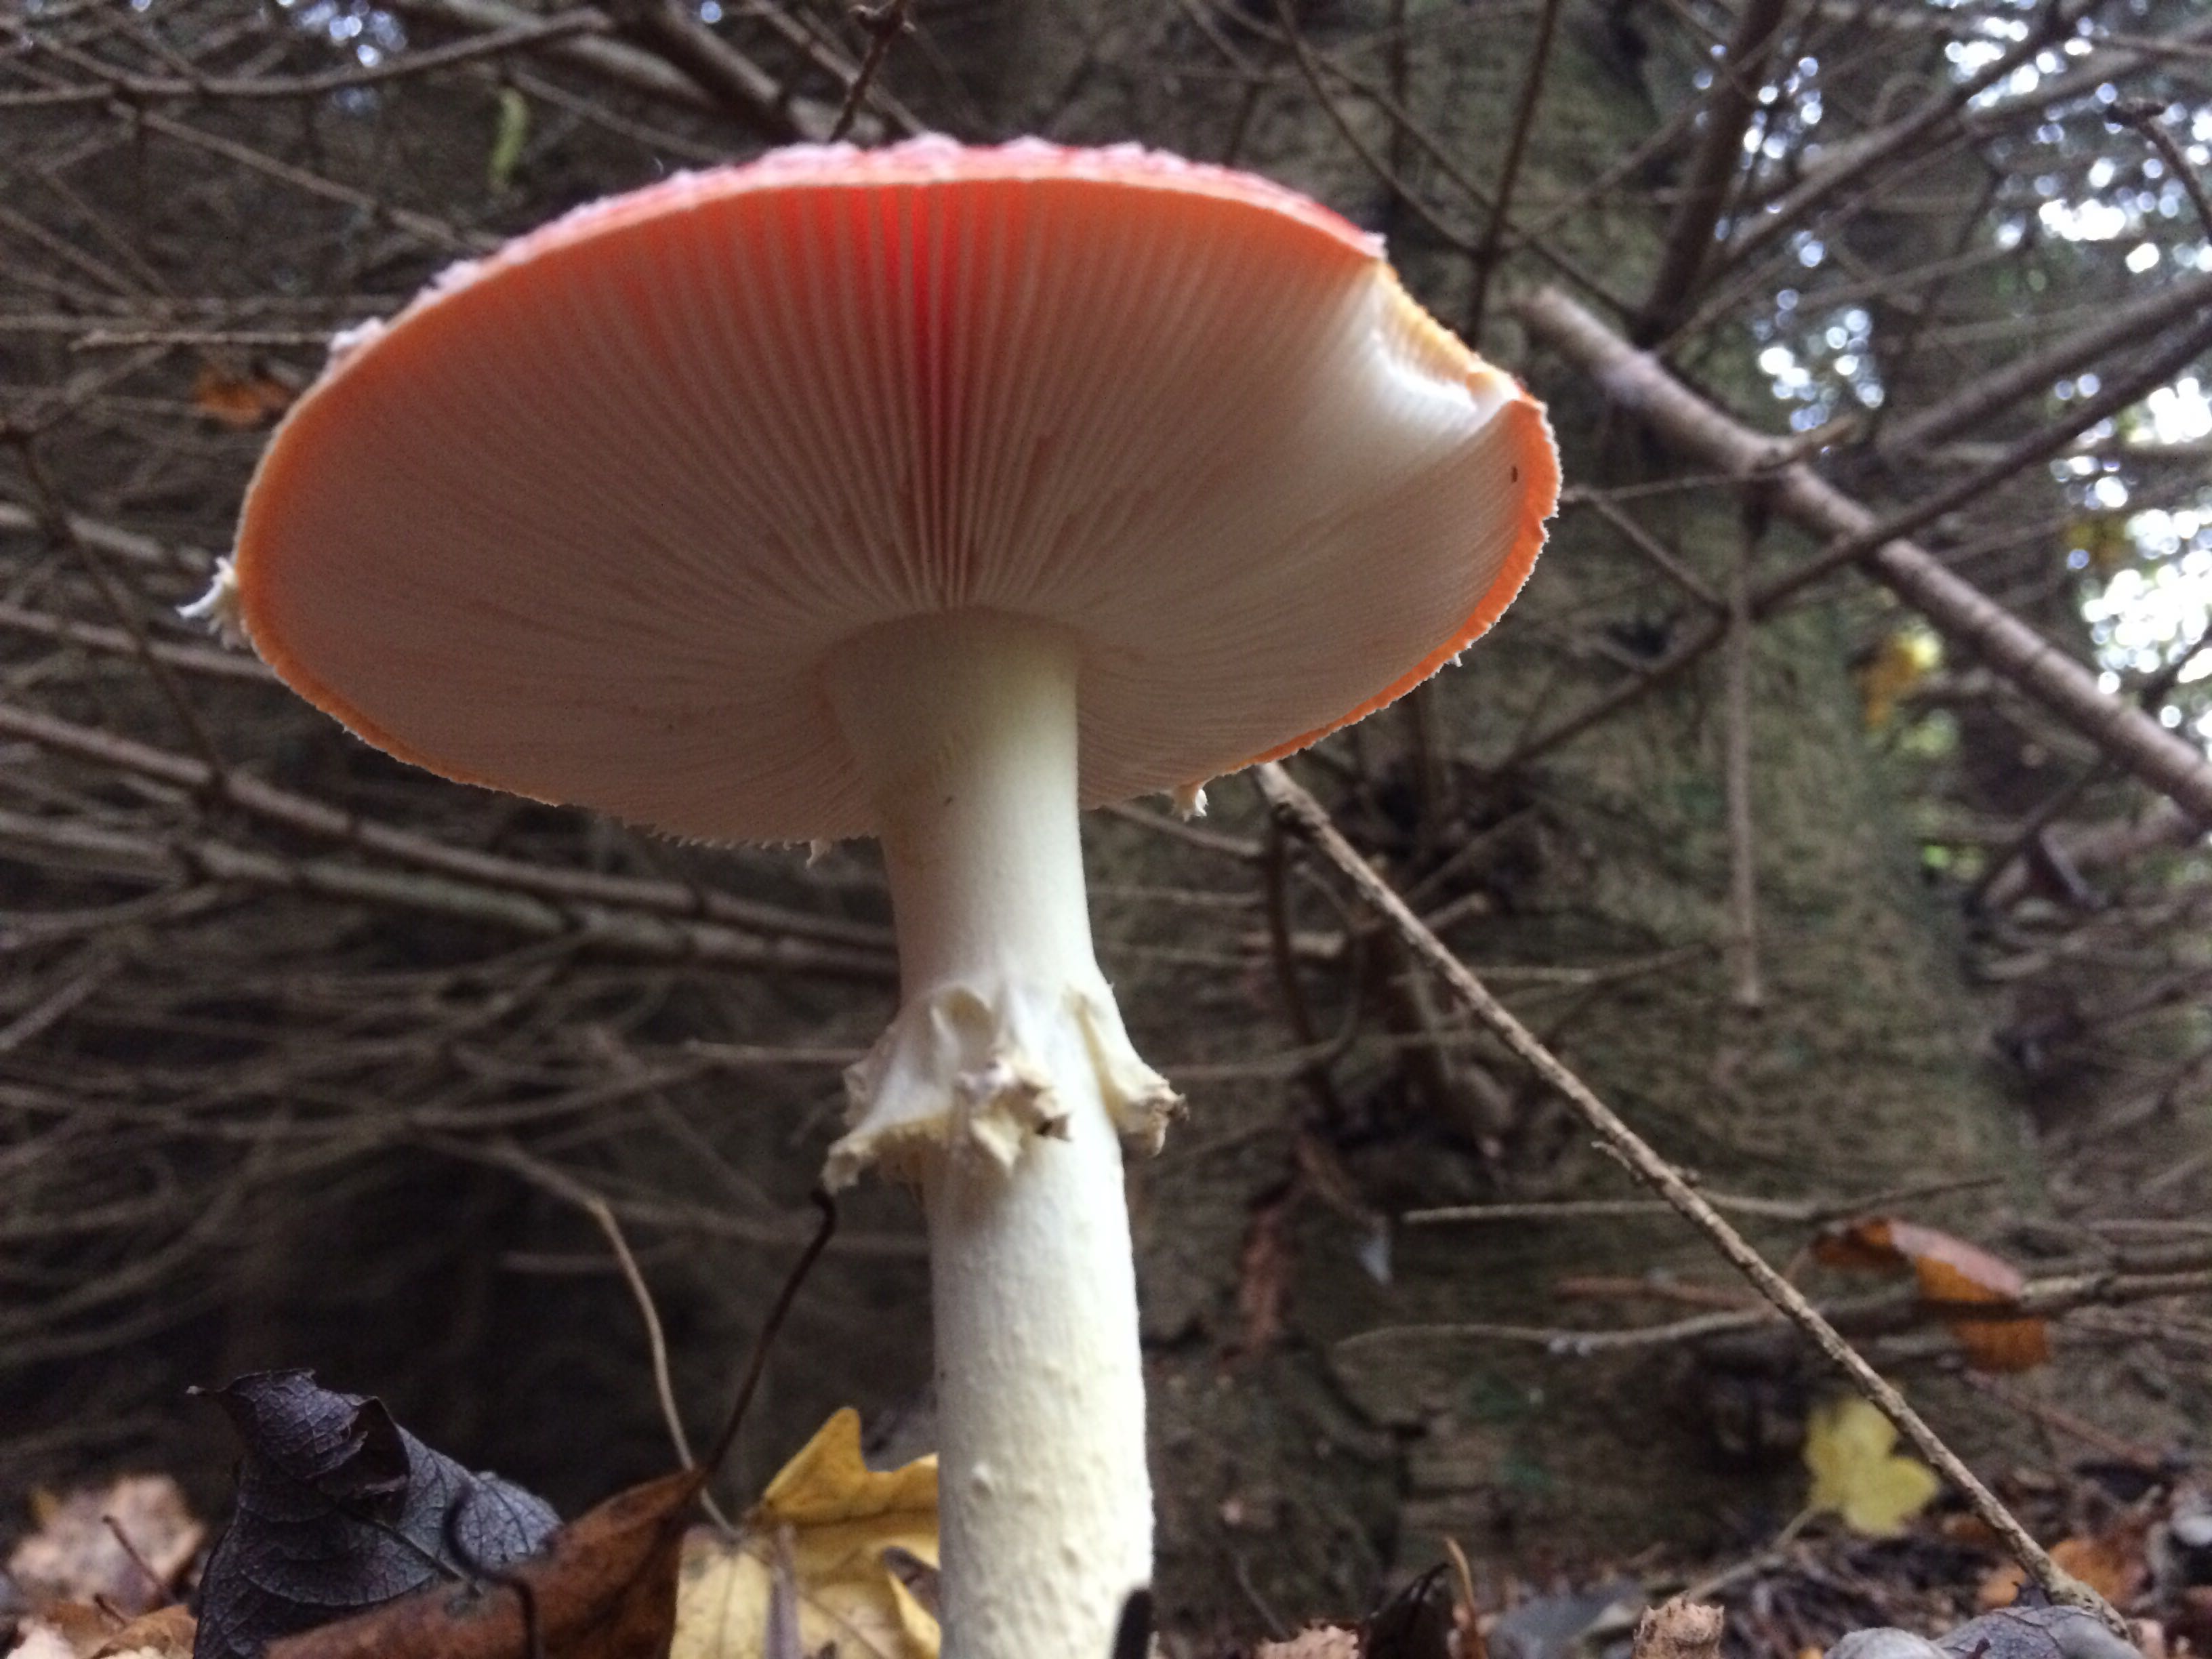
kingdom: Fungi
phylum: Basidiomycota
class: Agaricomycetes
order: Agaricales
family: Amanitaceae
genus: Amanita
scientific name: Amanita muscaria
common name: rød fluesvamp
